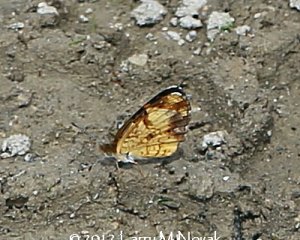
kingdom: Animalia
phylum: Arthropoda
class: Insecta
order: Lepidoptera
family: Nymphalidae
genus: Phyciodes
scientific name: Phyciodes tharos
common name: Pearl Crescent
